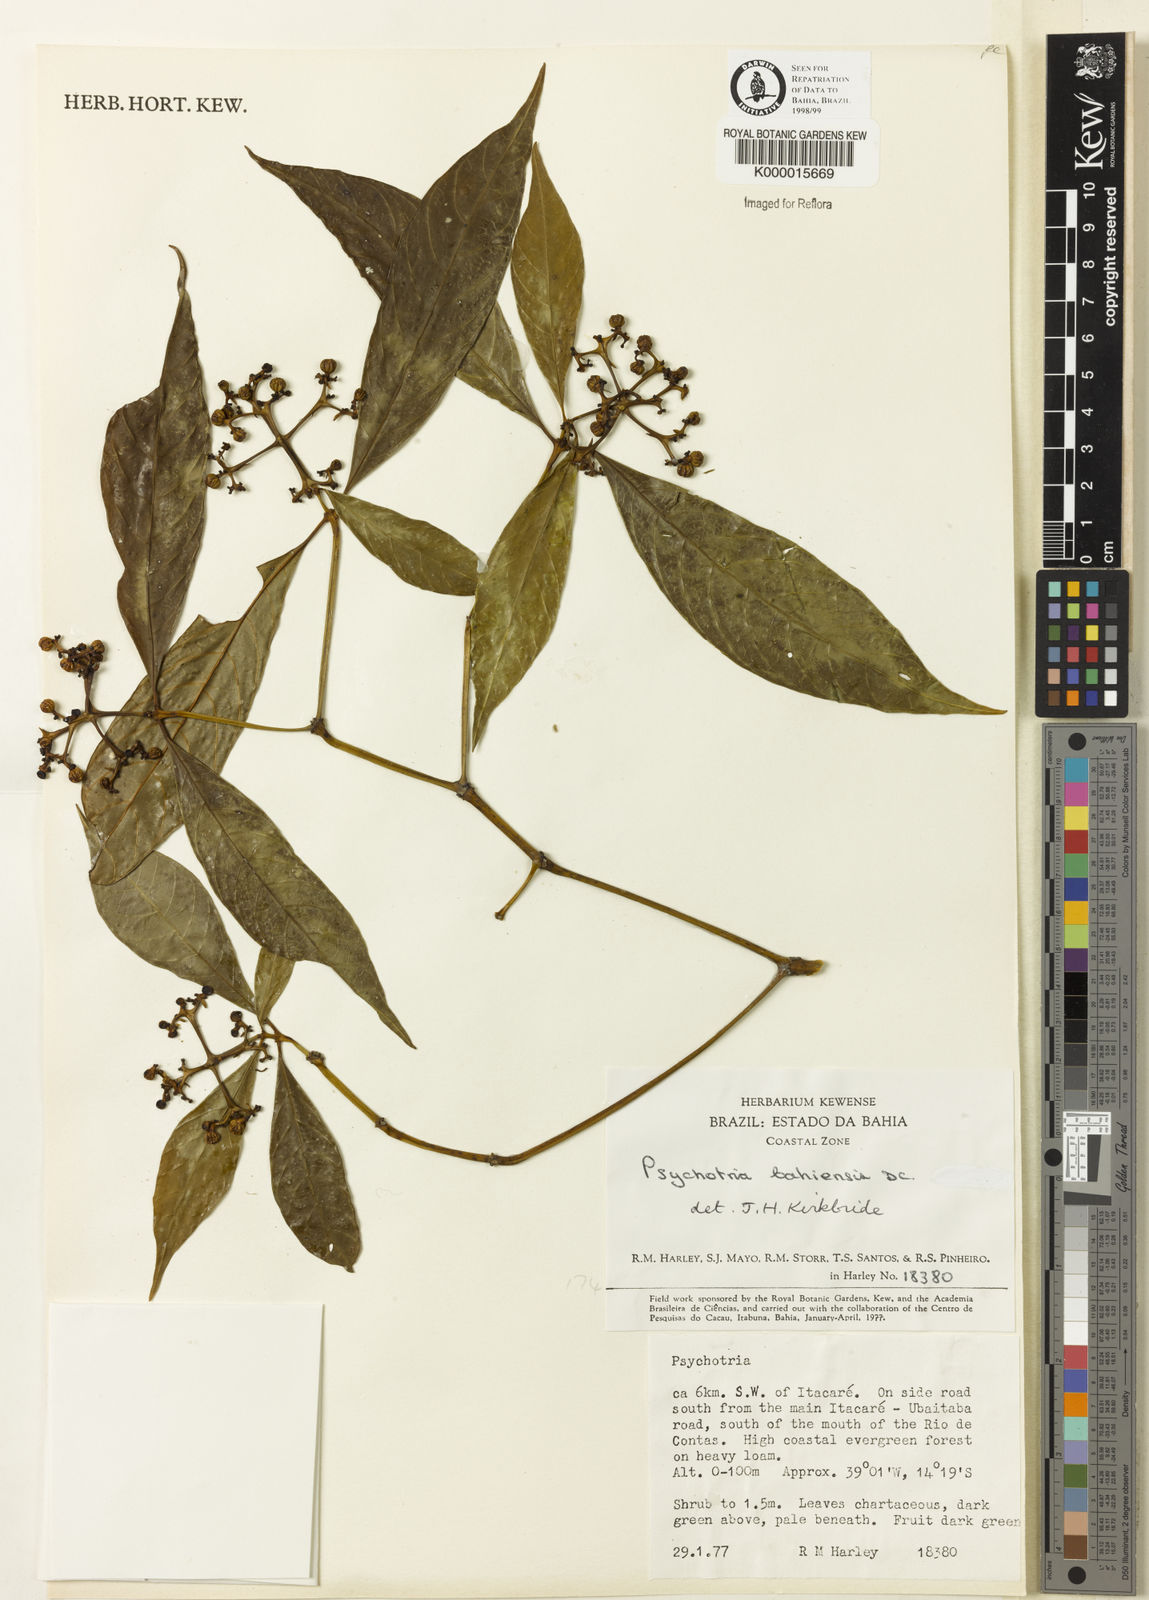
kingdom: Plantae
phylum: Tracheophyta
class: Magnoliopsida
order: Gentianales
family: Rubiaceae
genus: Psychotria
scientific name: Psychotria bahiensis
